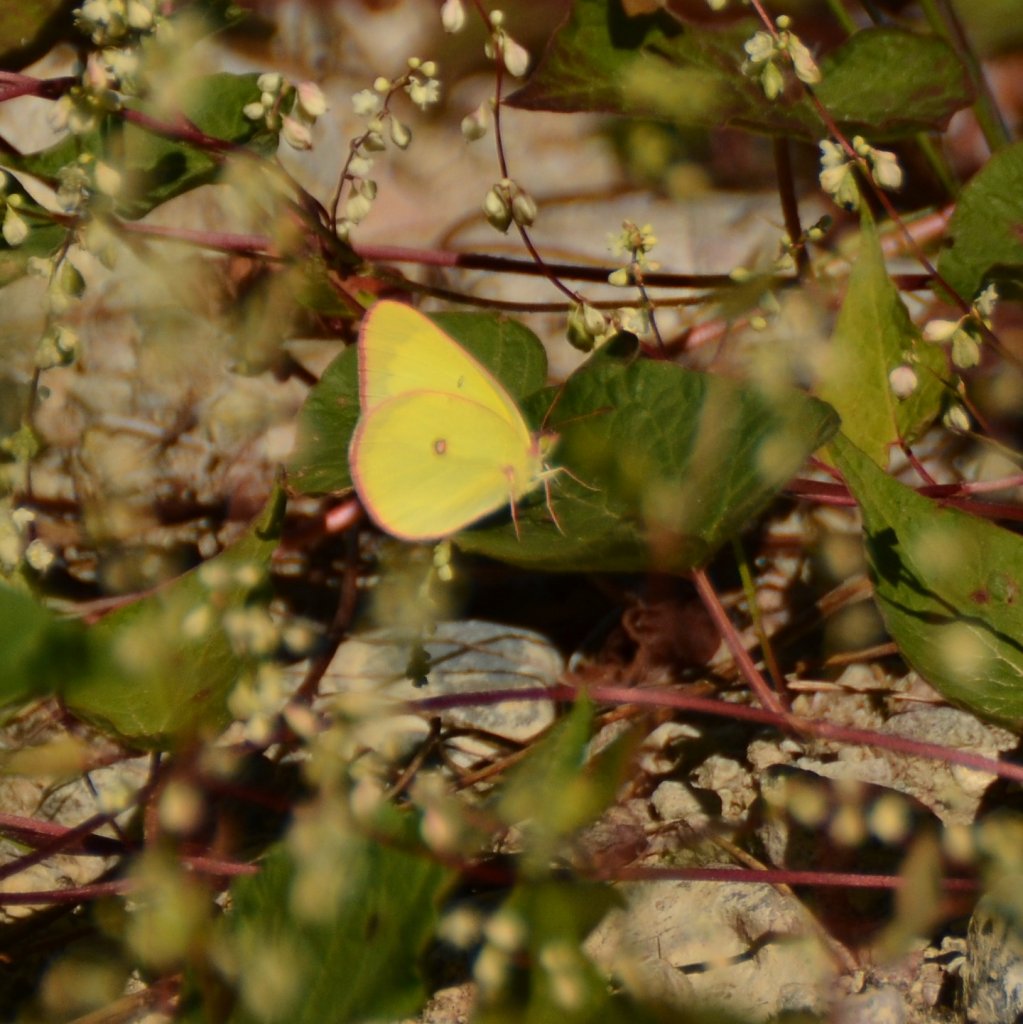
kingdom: Animalia
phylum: Arthropoda
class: Insecta
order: Lepidoptera
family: Pieridae
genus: Colias
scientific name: Colias interior
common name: Pink-edged Sulphur
